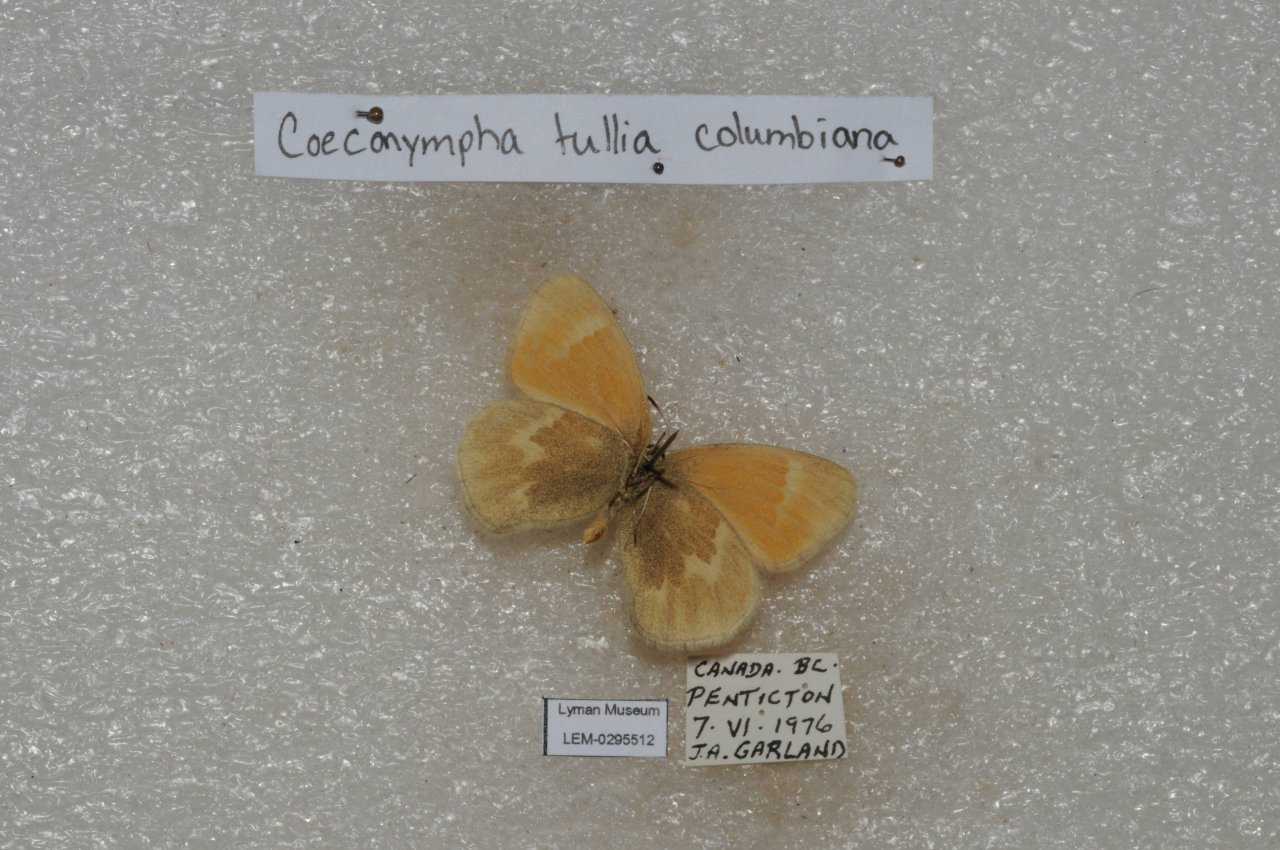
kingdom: Animalia
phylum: Arthropoda
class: Insecta
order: Lepidoptera
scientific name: Lepidoptera
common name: Butterflies
